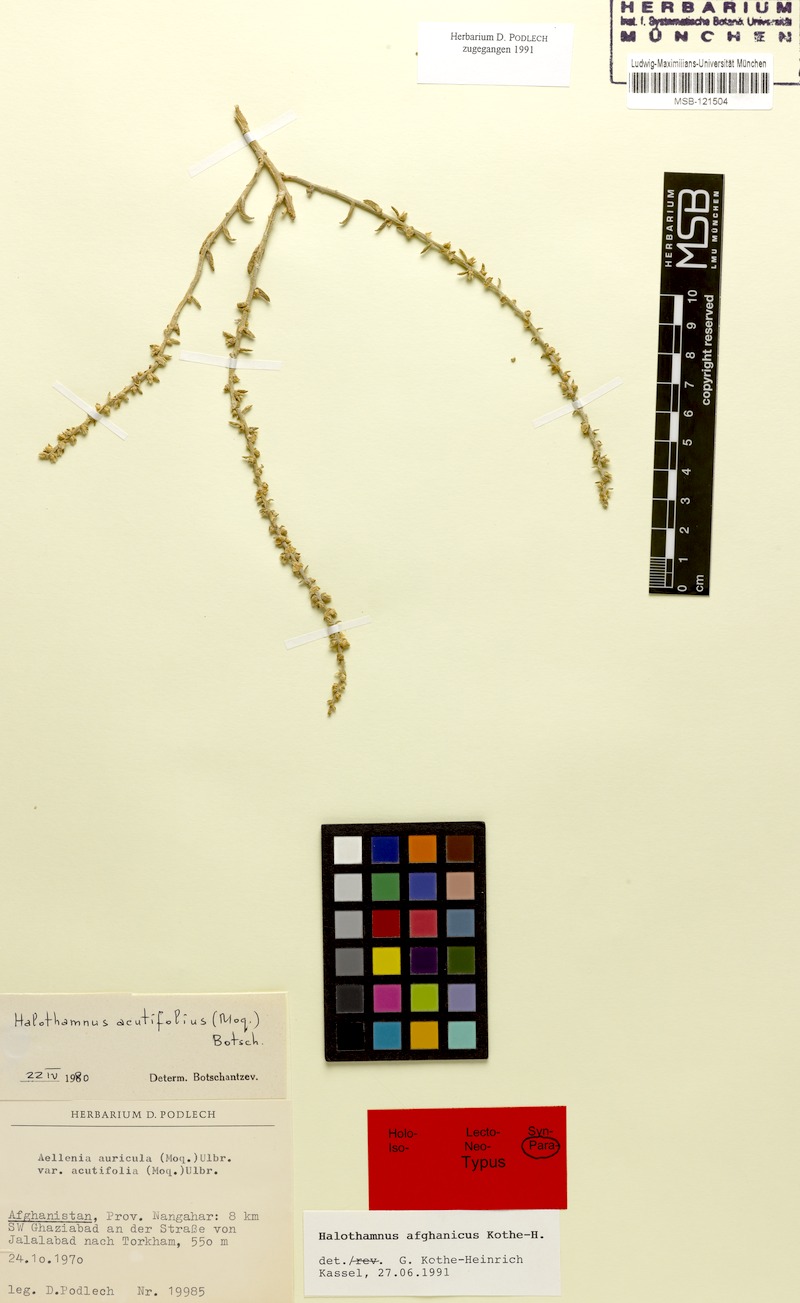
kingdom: Plantae
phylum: Tracheophyta
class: Magnoliopsida
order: Caryophyllales
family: Amaranthaceae
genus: Halothamnus
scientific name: Halothamnus afghanicus
